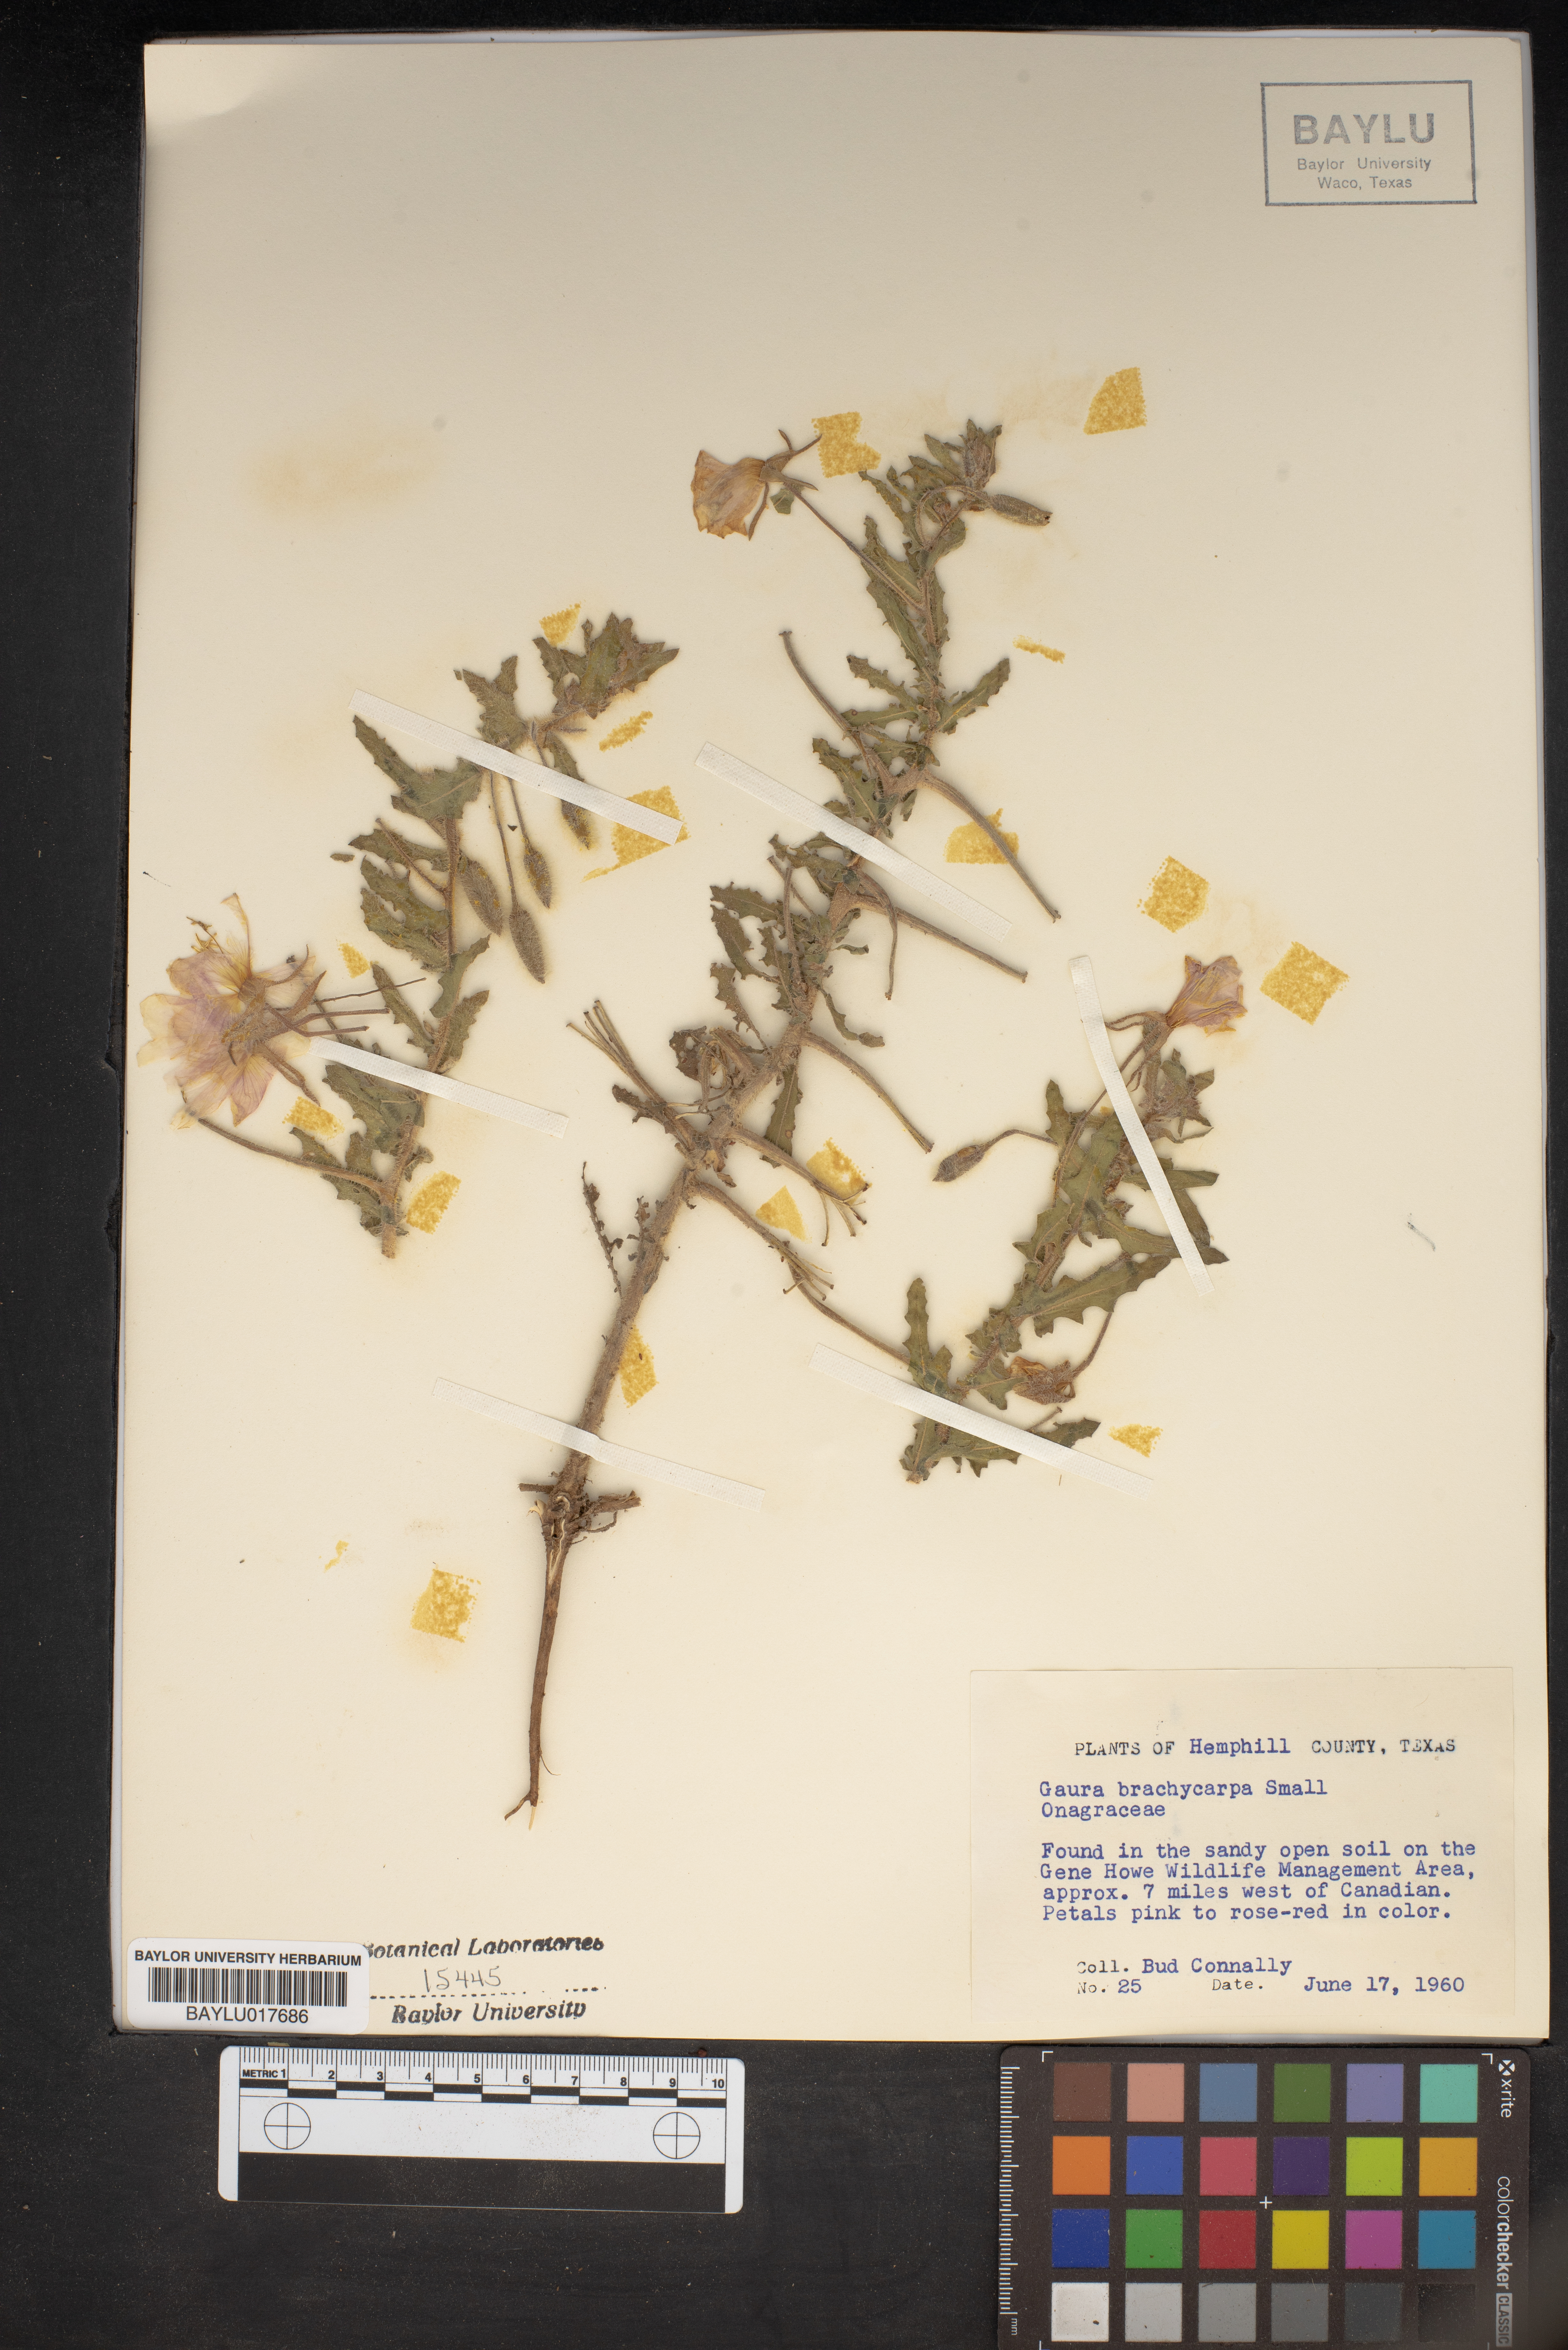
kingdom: Plantae
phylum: Tracheophyta
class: Magnoliopsida
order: Myrtales
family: Onagraceae
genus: Oenothera
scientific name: Oenothera patriciae
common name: Plains beeblossom
